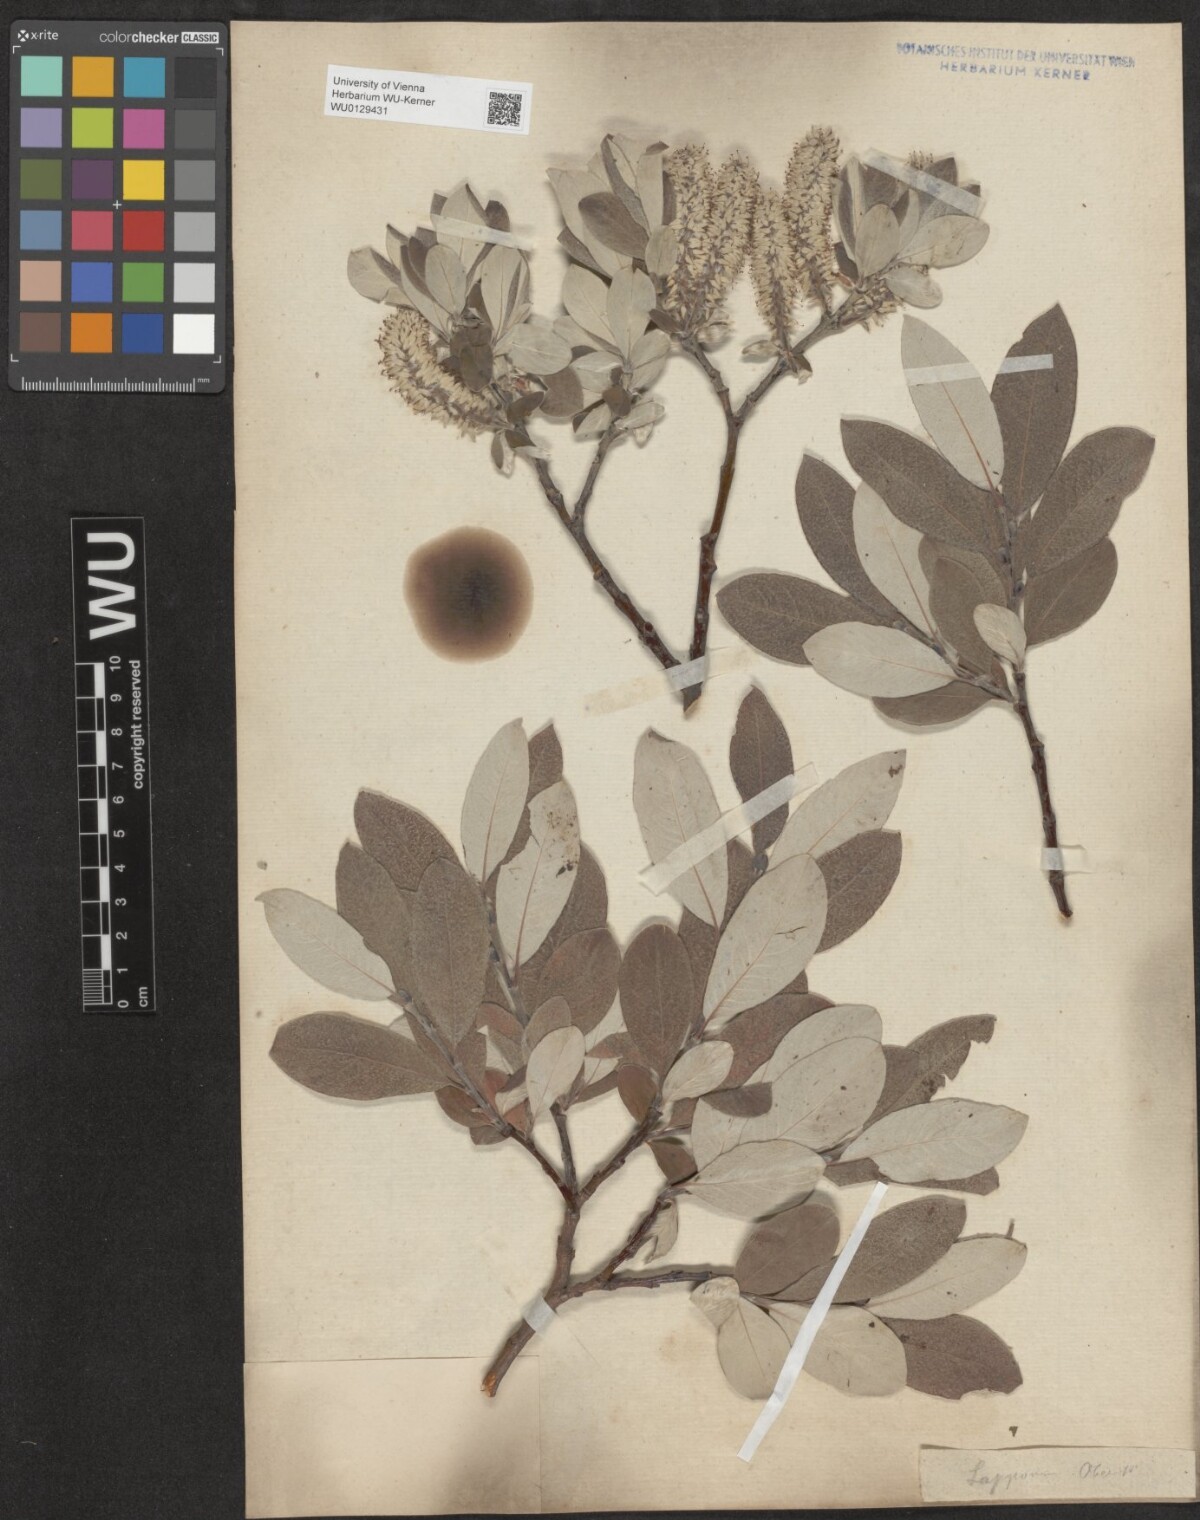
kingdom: Plantae
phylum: Tracheophyta
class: Magnoliopsida
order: Malpighiales
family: Salicaceae
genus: Salix
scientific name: Salix helvetica
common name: Swiss willow
